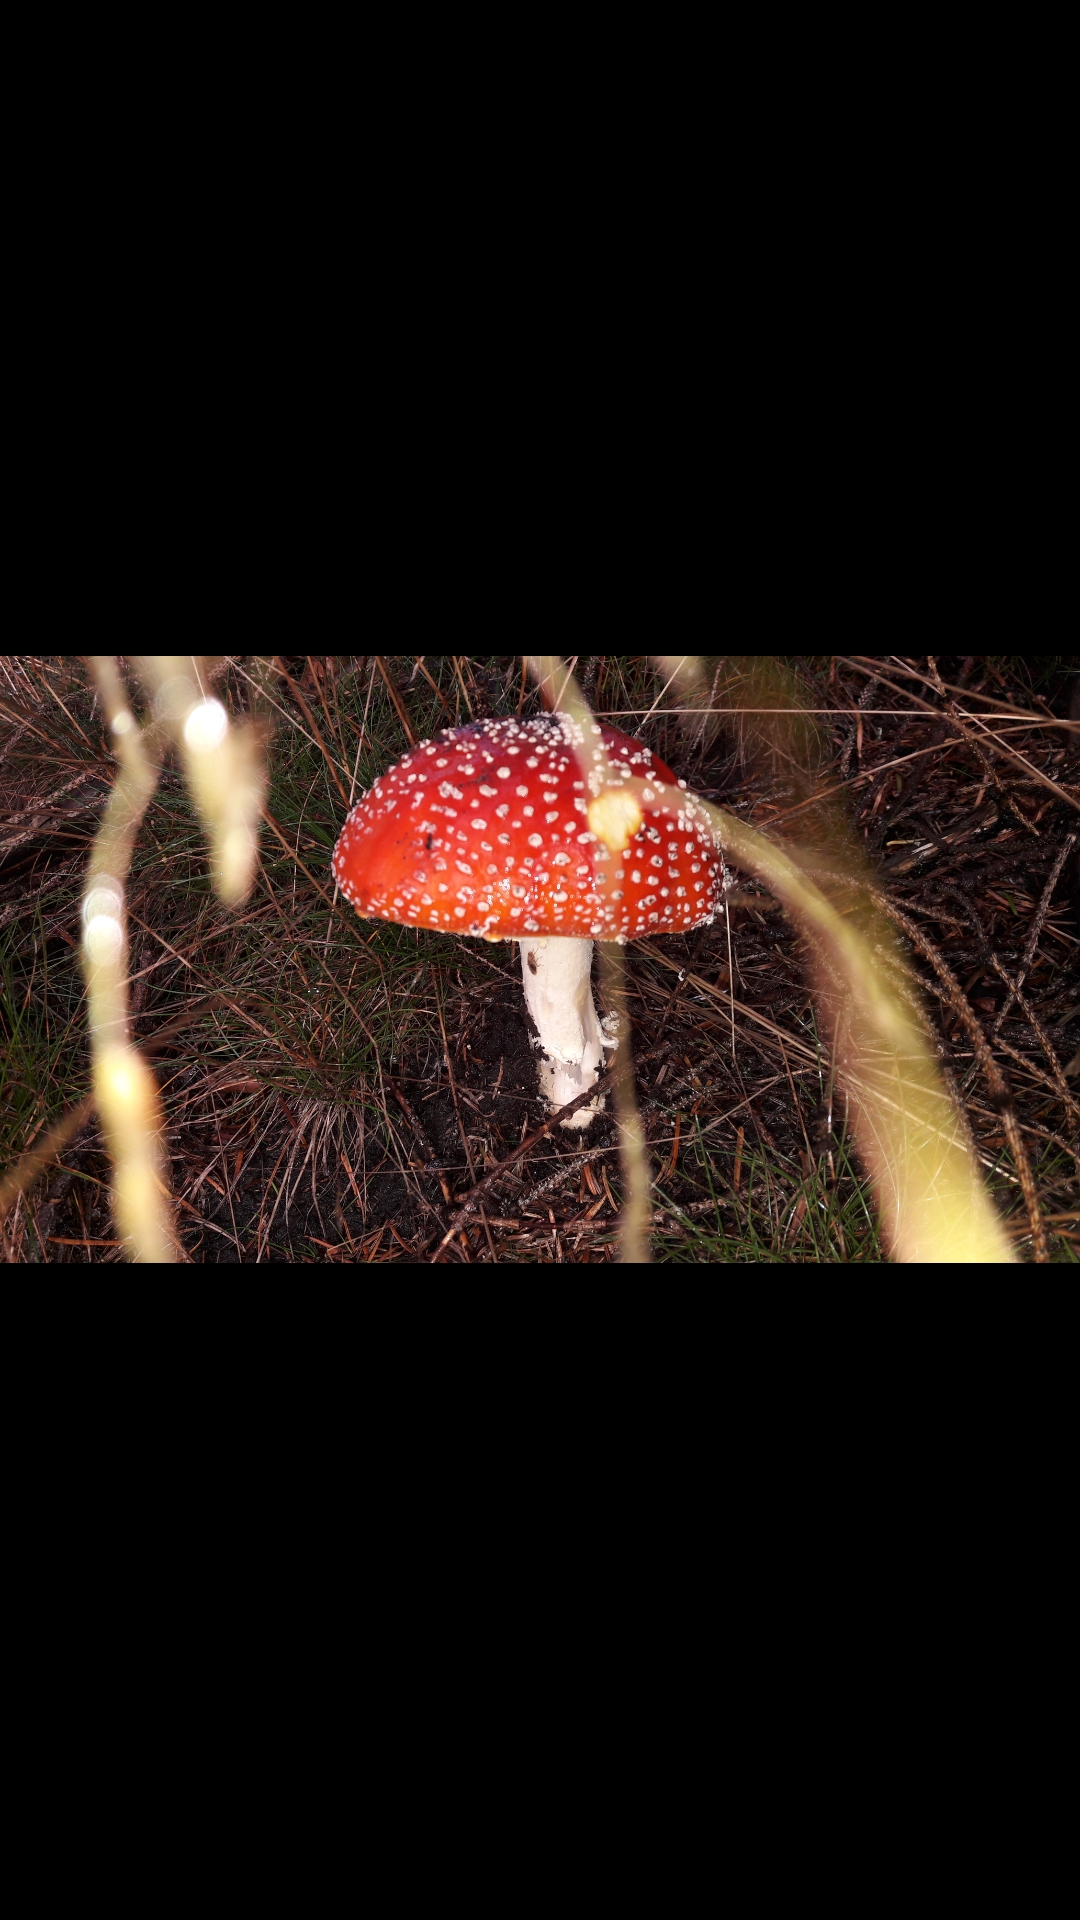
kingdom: Fungi
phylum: Basidiomycota
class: Agaricomycetes
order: Agaricales
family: Amanitaceae
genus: Amanita
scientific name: Amanita muscaria
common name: rød fluesvamp
